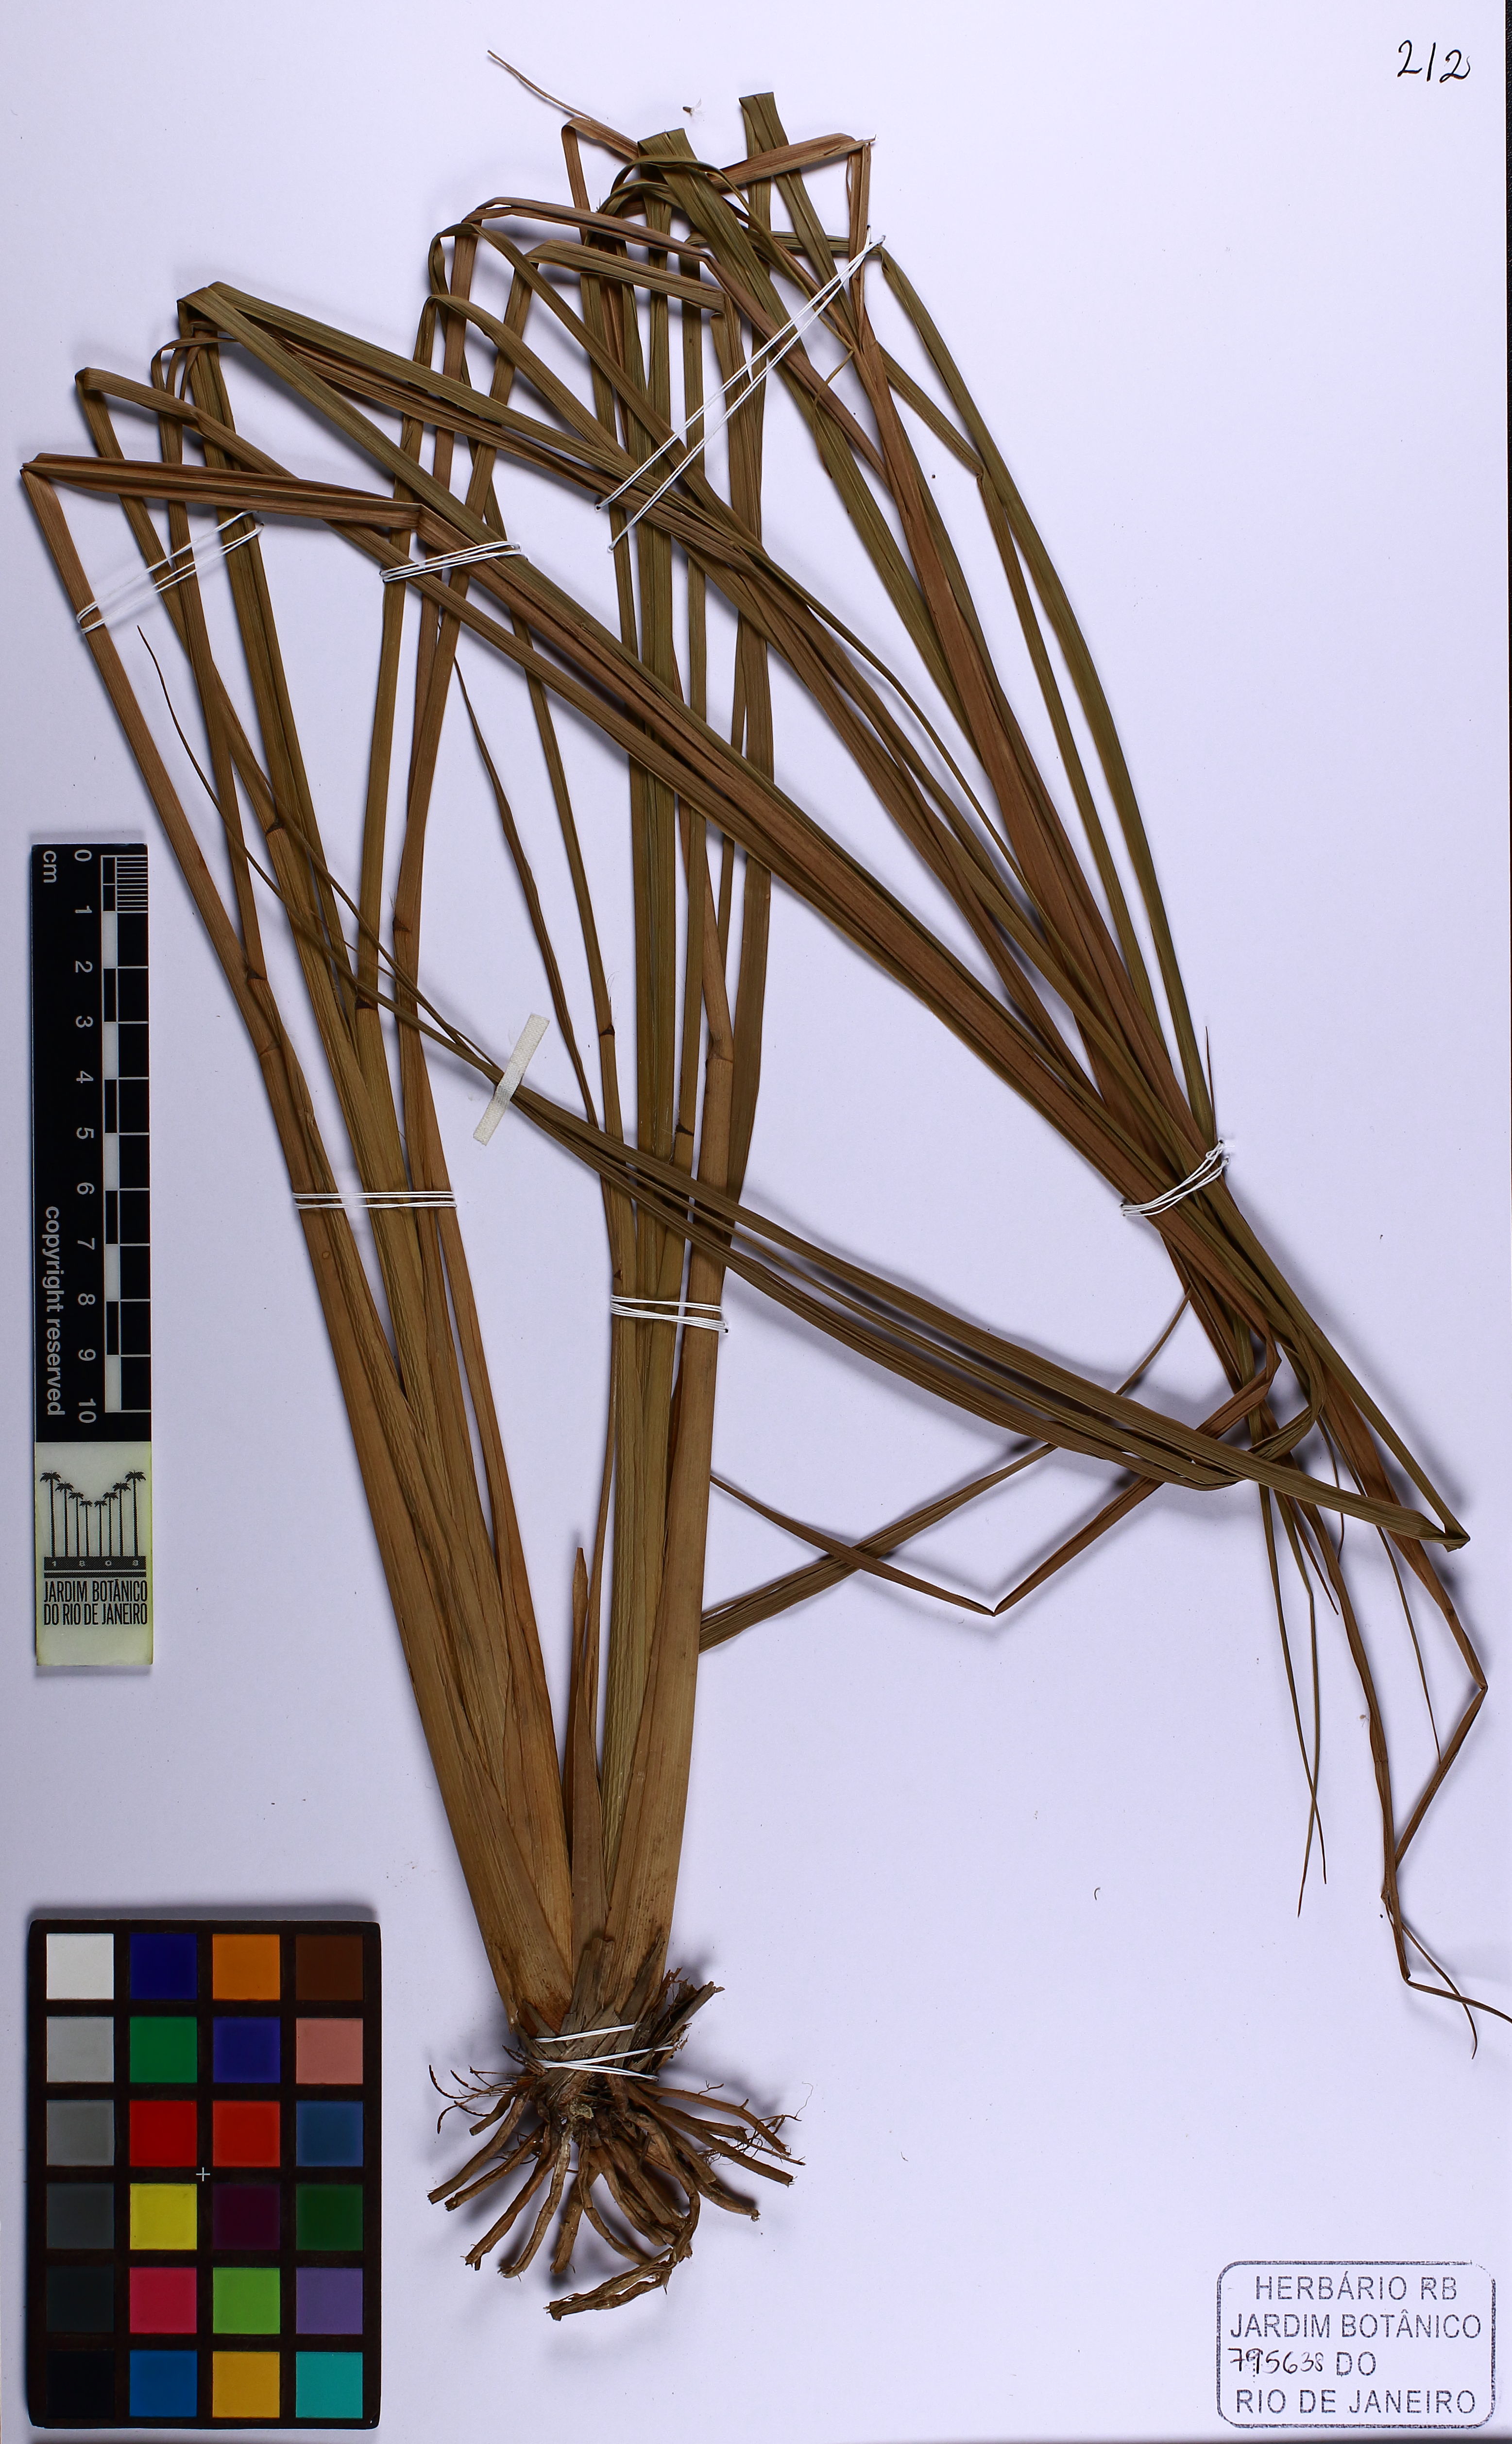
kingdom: Plantae
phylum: Tracheophyta
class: Liliopsida
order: Poales
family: Cyperaceae
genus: Cyperus
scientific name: Cyperus haspan
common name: Haspan flatsedge
